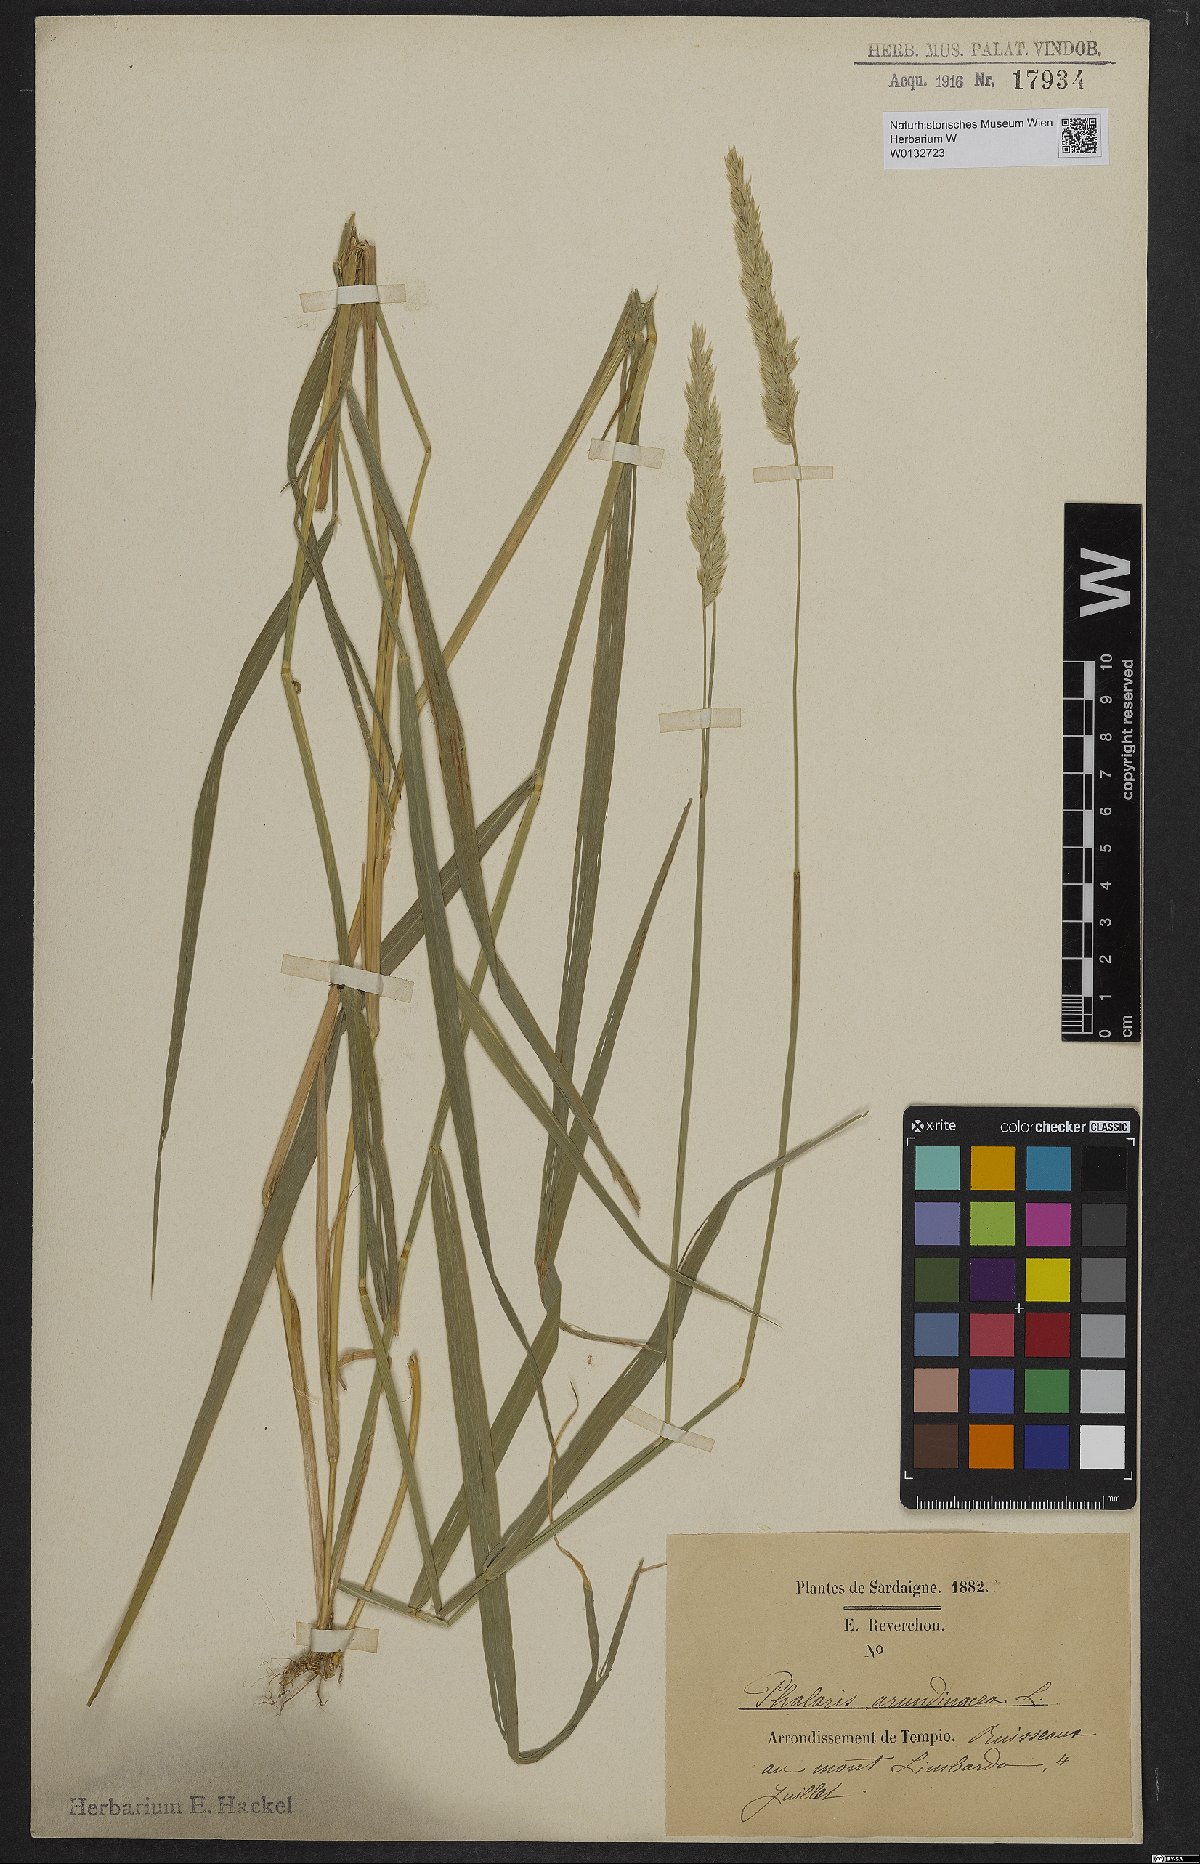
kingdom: Plantae
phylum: Tracheophyta
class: Liliopsida
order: Poales
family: Poaceae
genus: Phalaris
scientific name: Phalaris arundinacea
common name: Reed canary-grass
